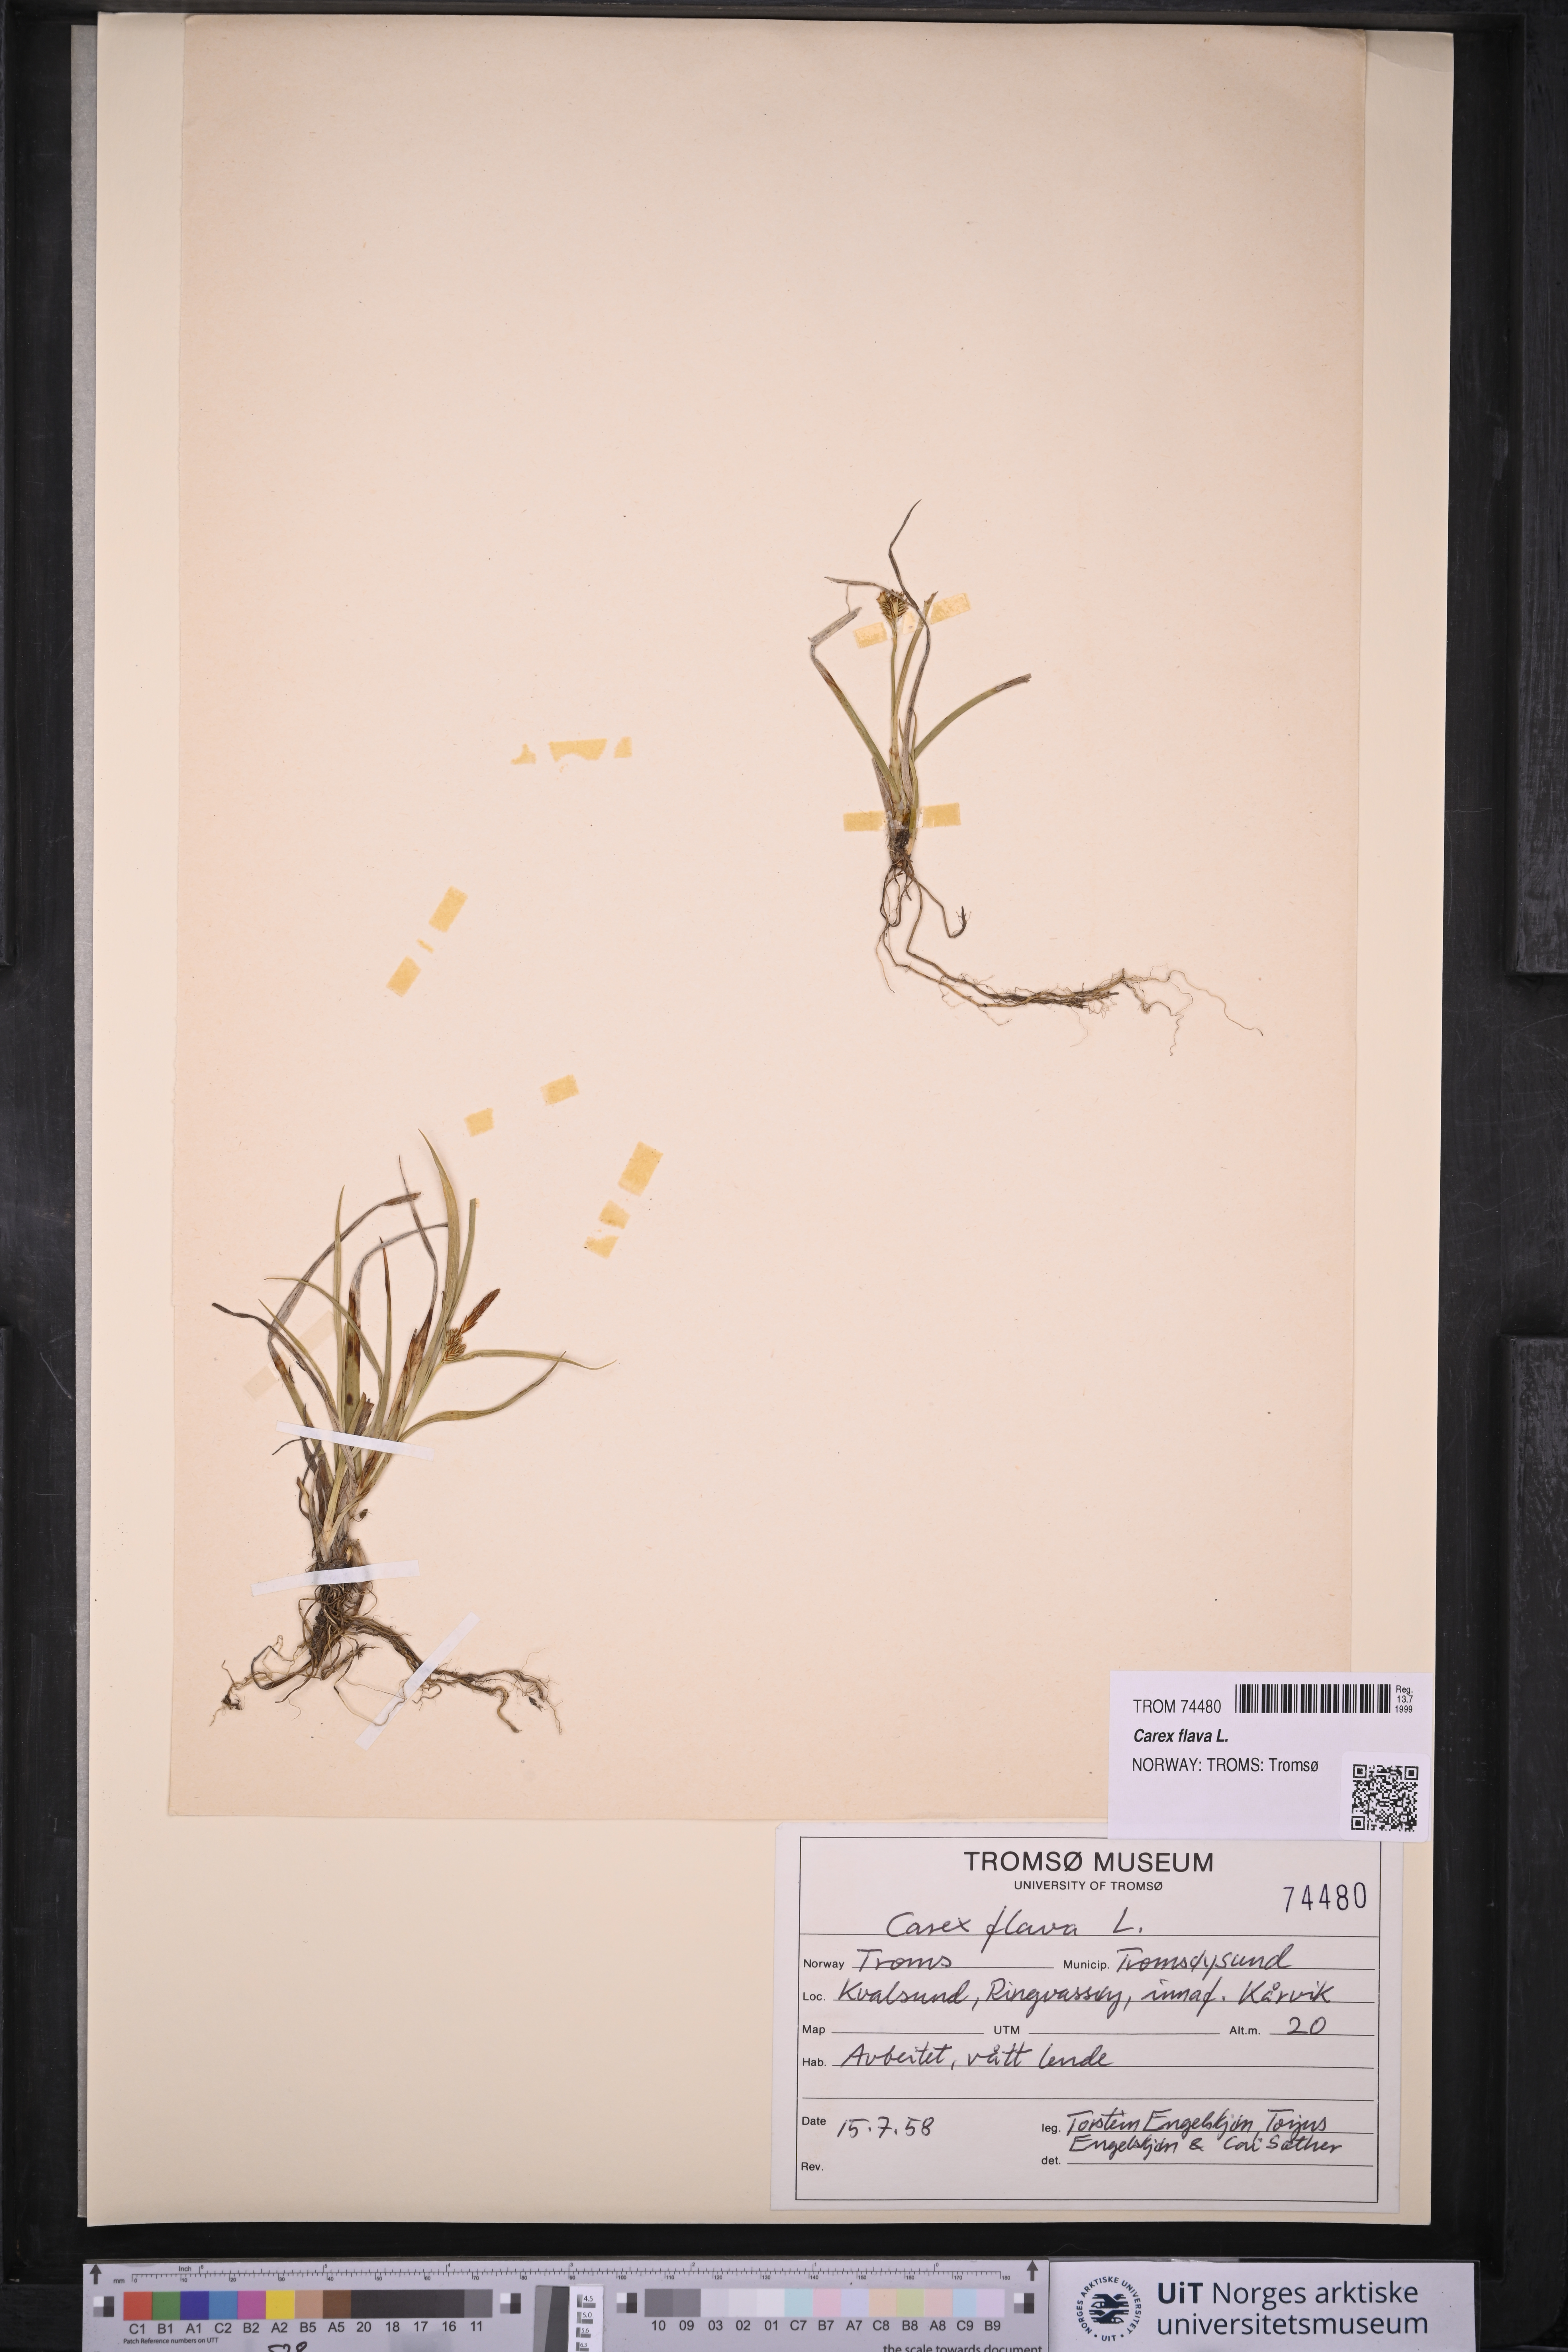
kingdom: Plantae
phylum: Tracheophyta
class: Liliopsida
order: Poales
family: Cyperaceae
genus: Carex
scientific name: Carex flava
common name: Large yellow-sedge
